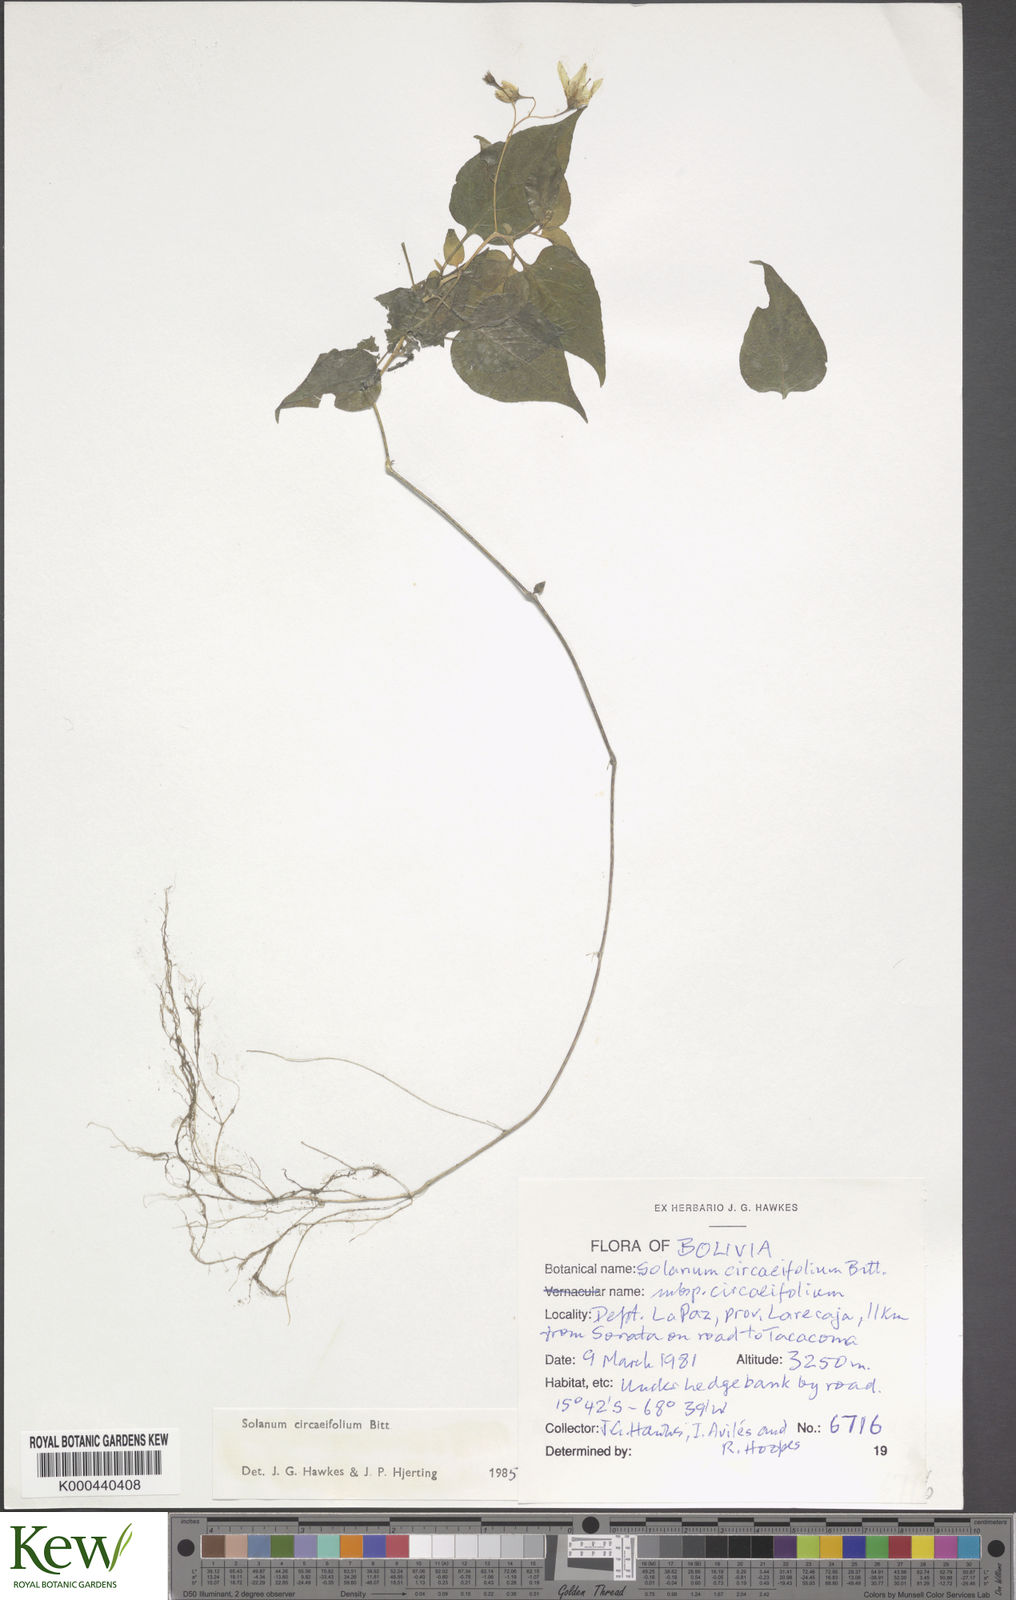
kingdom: Plantae
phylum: Tracheophyta
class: Magnoliopsida
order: Solanales
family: Solanaceae
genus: Solanum
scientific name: Solanum stipuloideum
